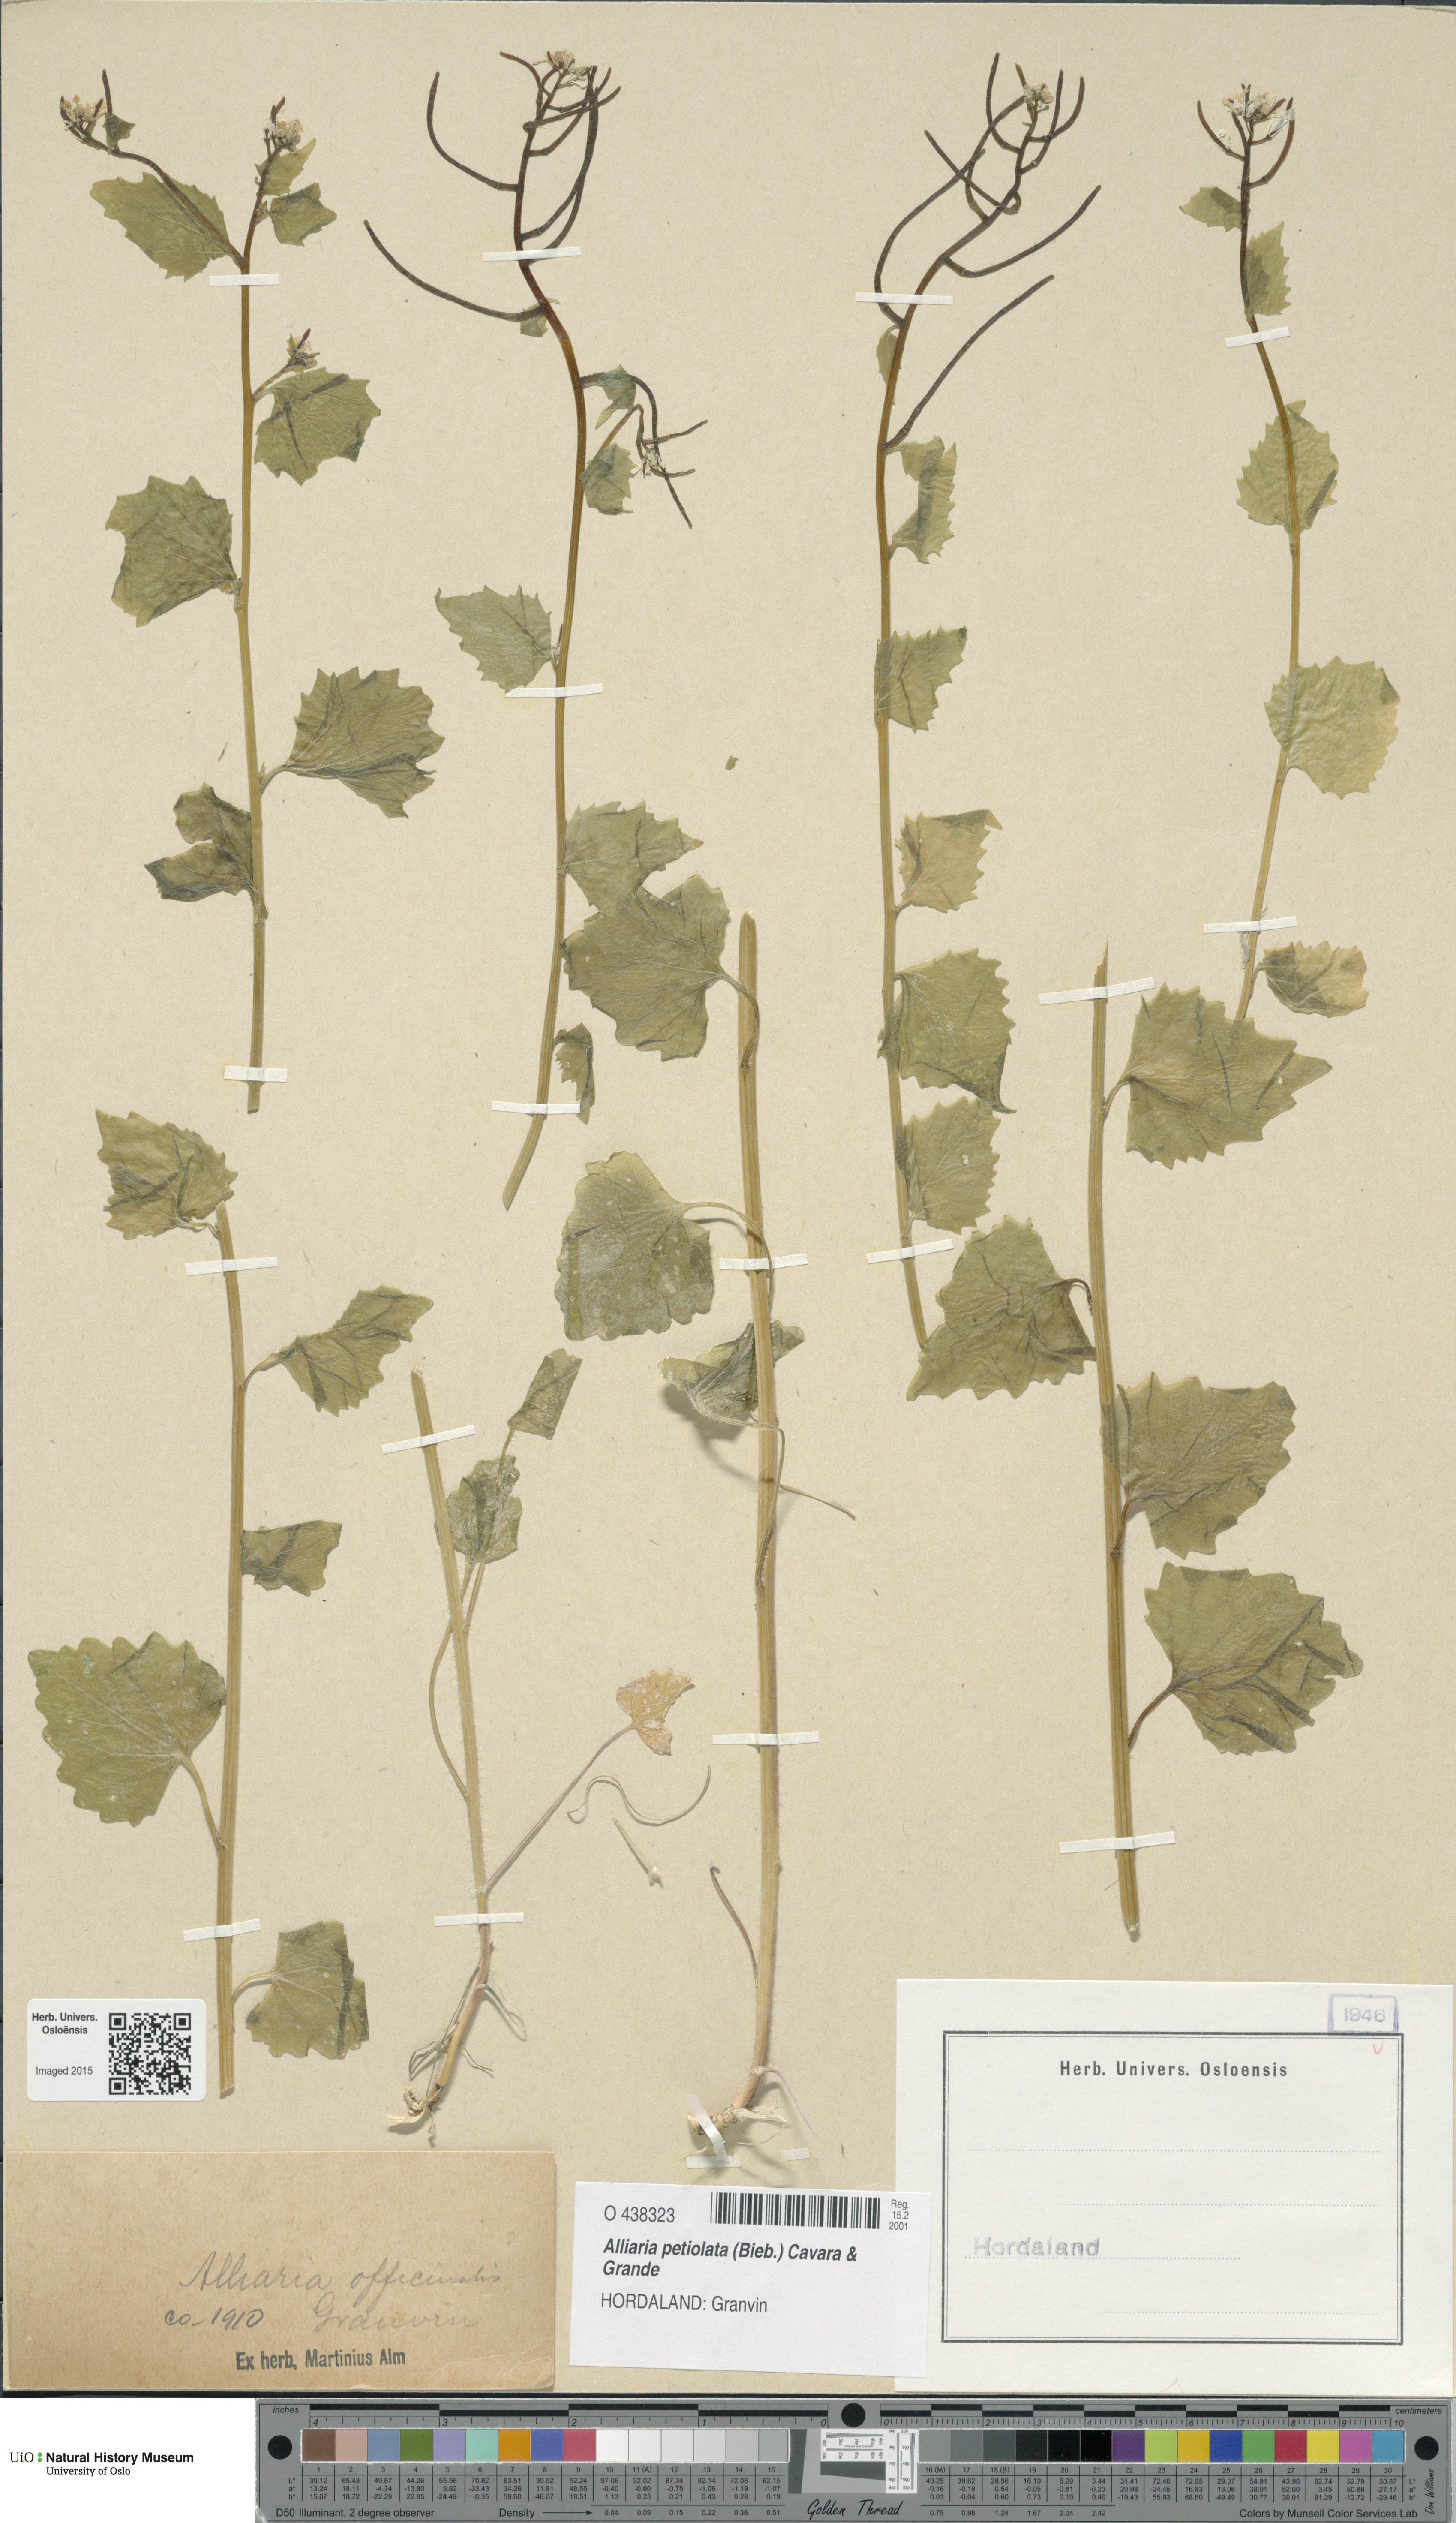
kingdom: Plantae
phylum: Tracheophyta
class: Magnoliopsida
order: Brassicales
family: Brassicaceae
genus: Alliaria
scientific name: Alliaria petiolata
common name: Garlic mustard
